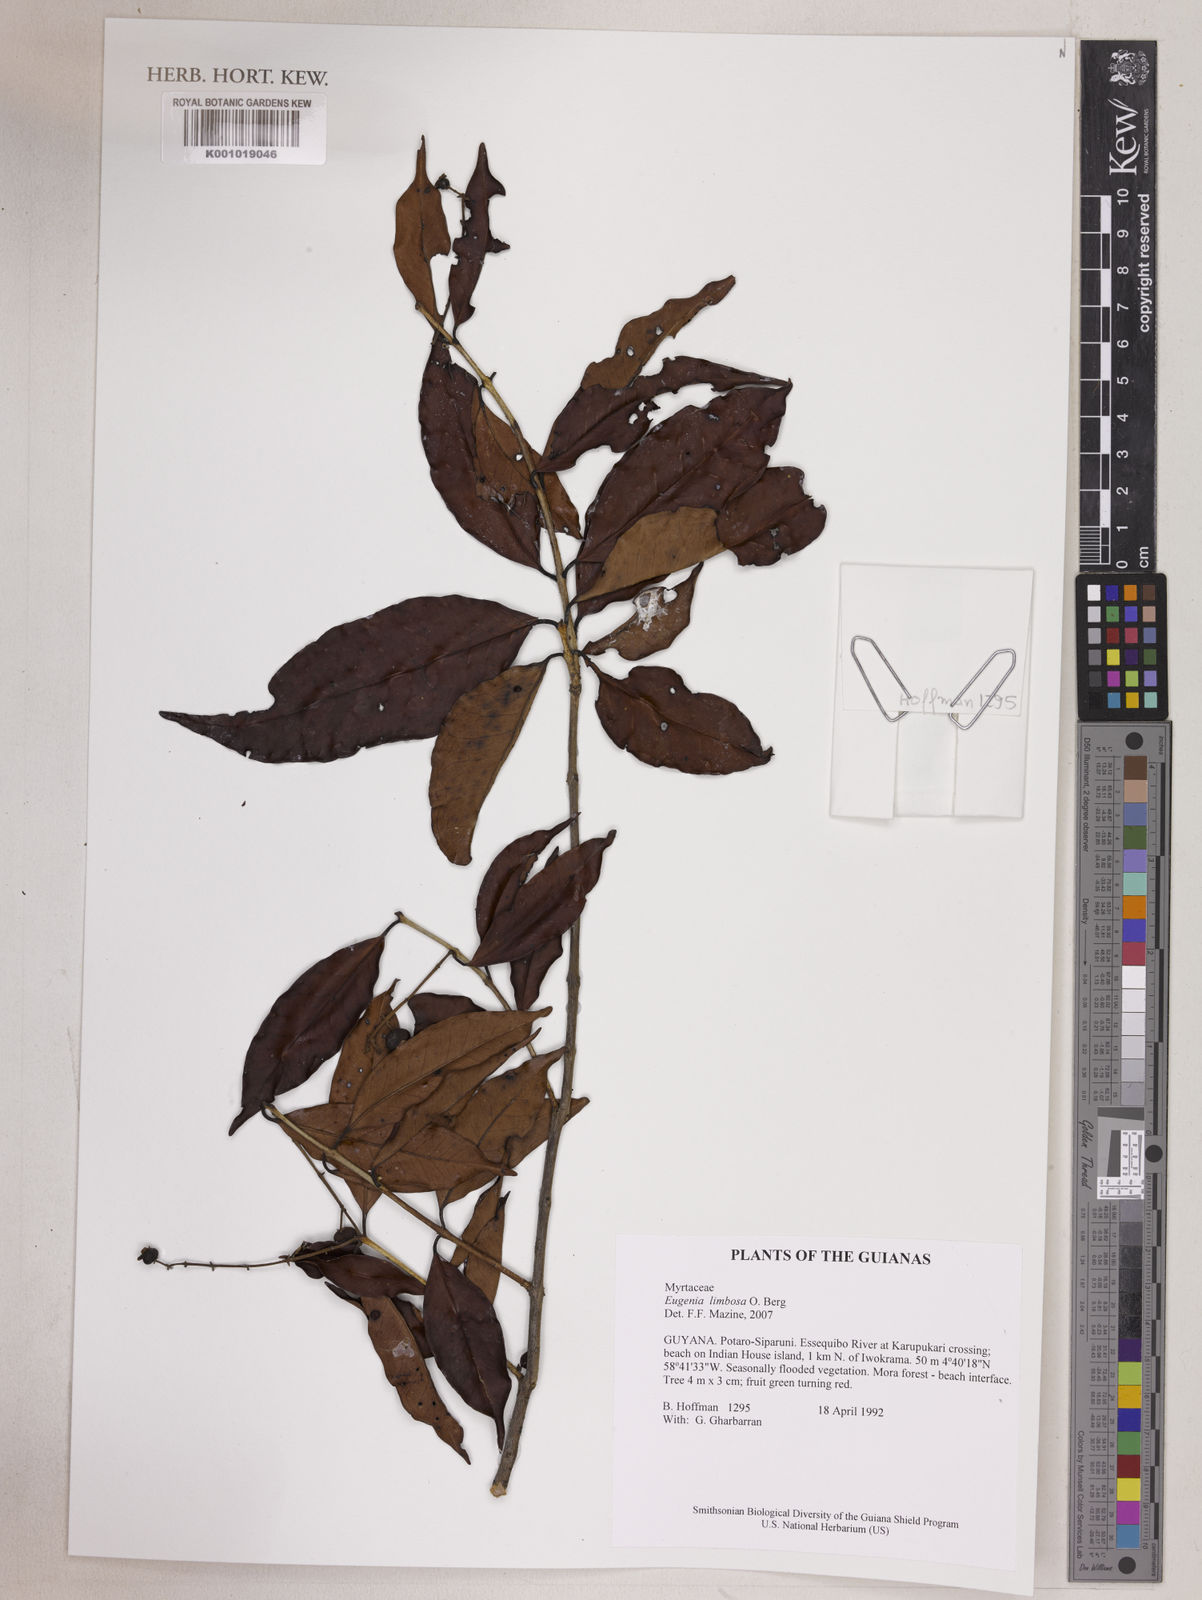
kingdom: Plantae
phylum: Tracheophyta
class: Magnoliopsida
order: Myrtales
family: Myrtaceae
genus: Eugenia
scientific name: Eugenia limbosa
